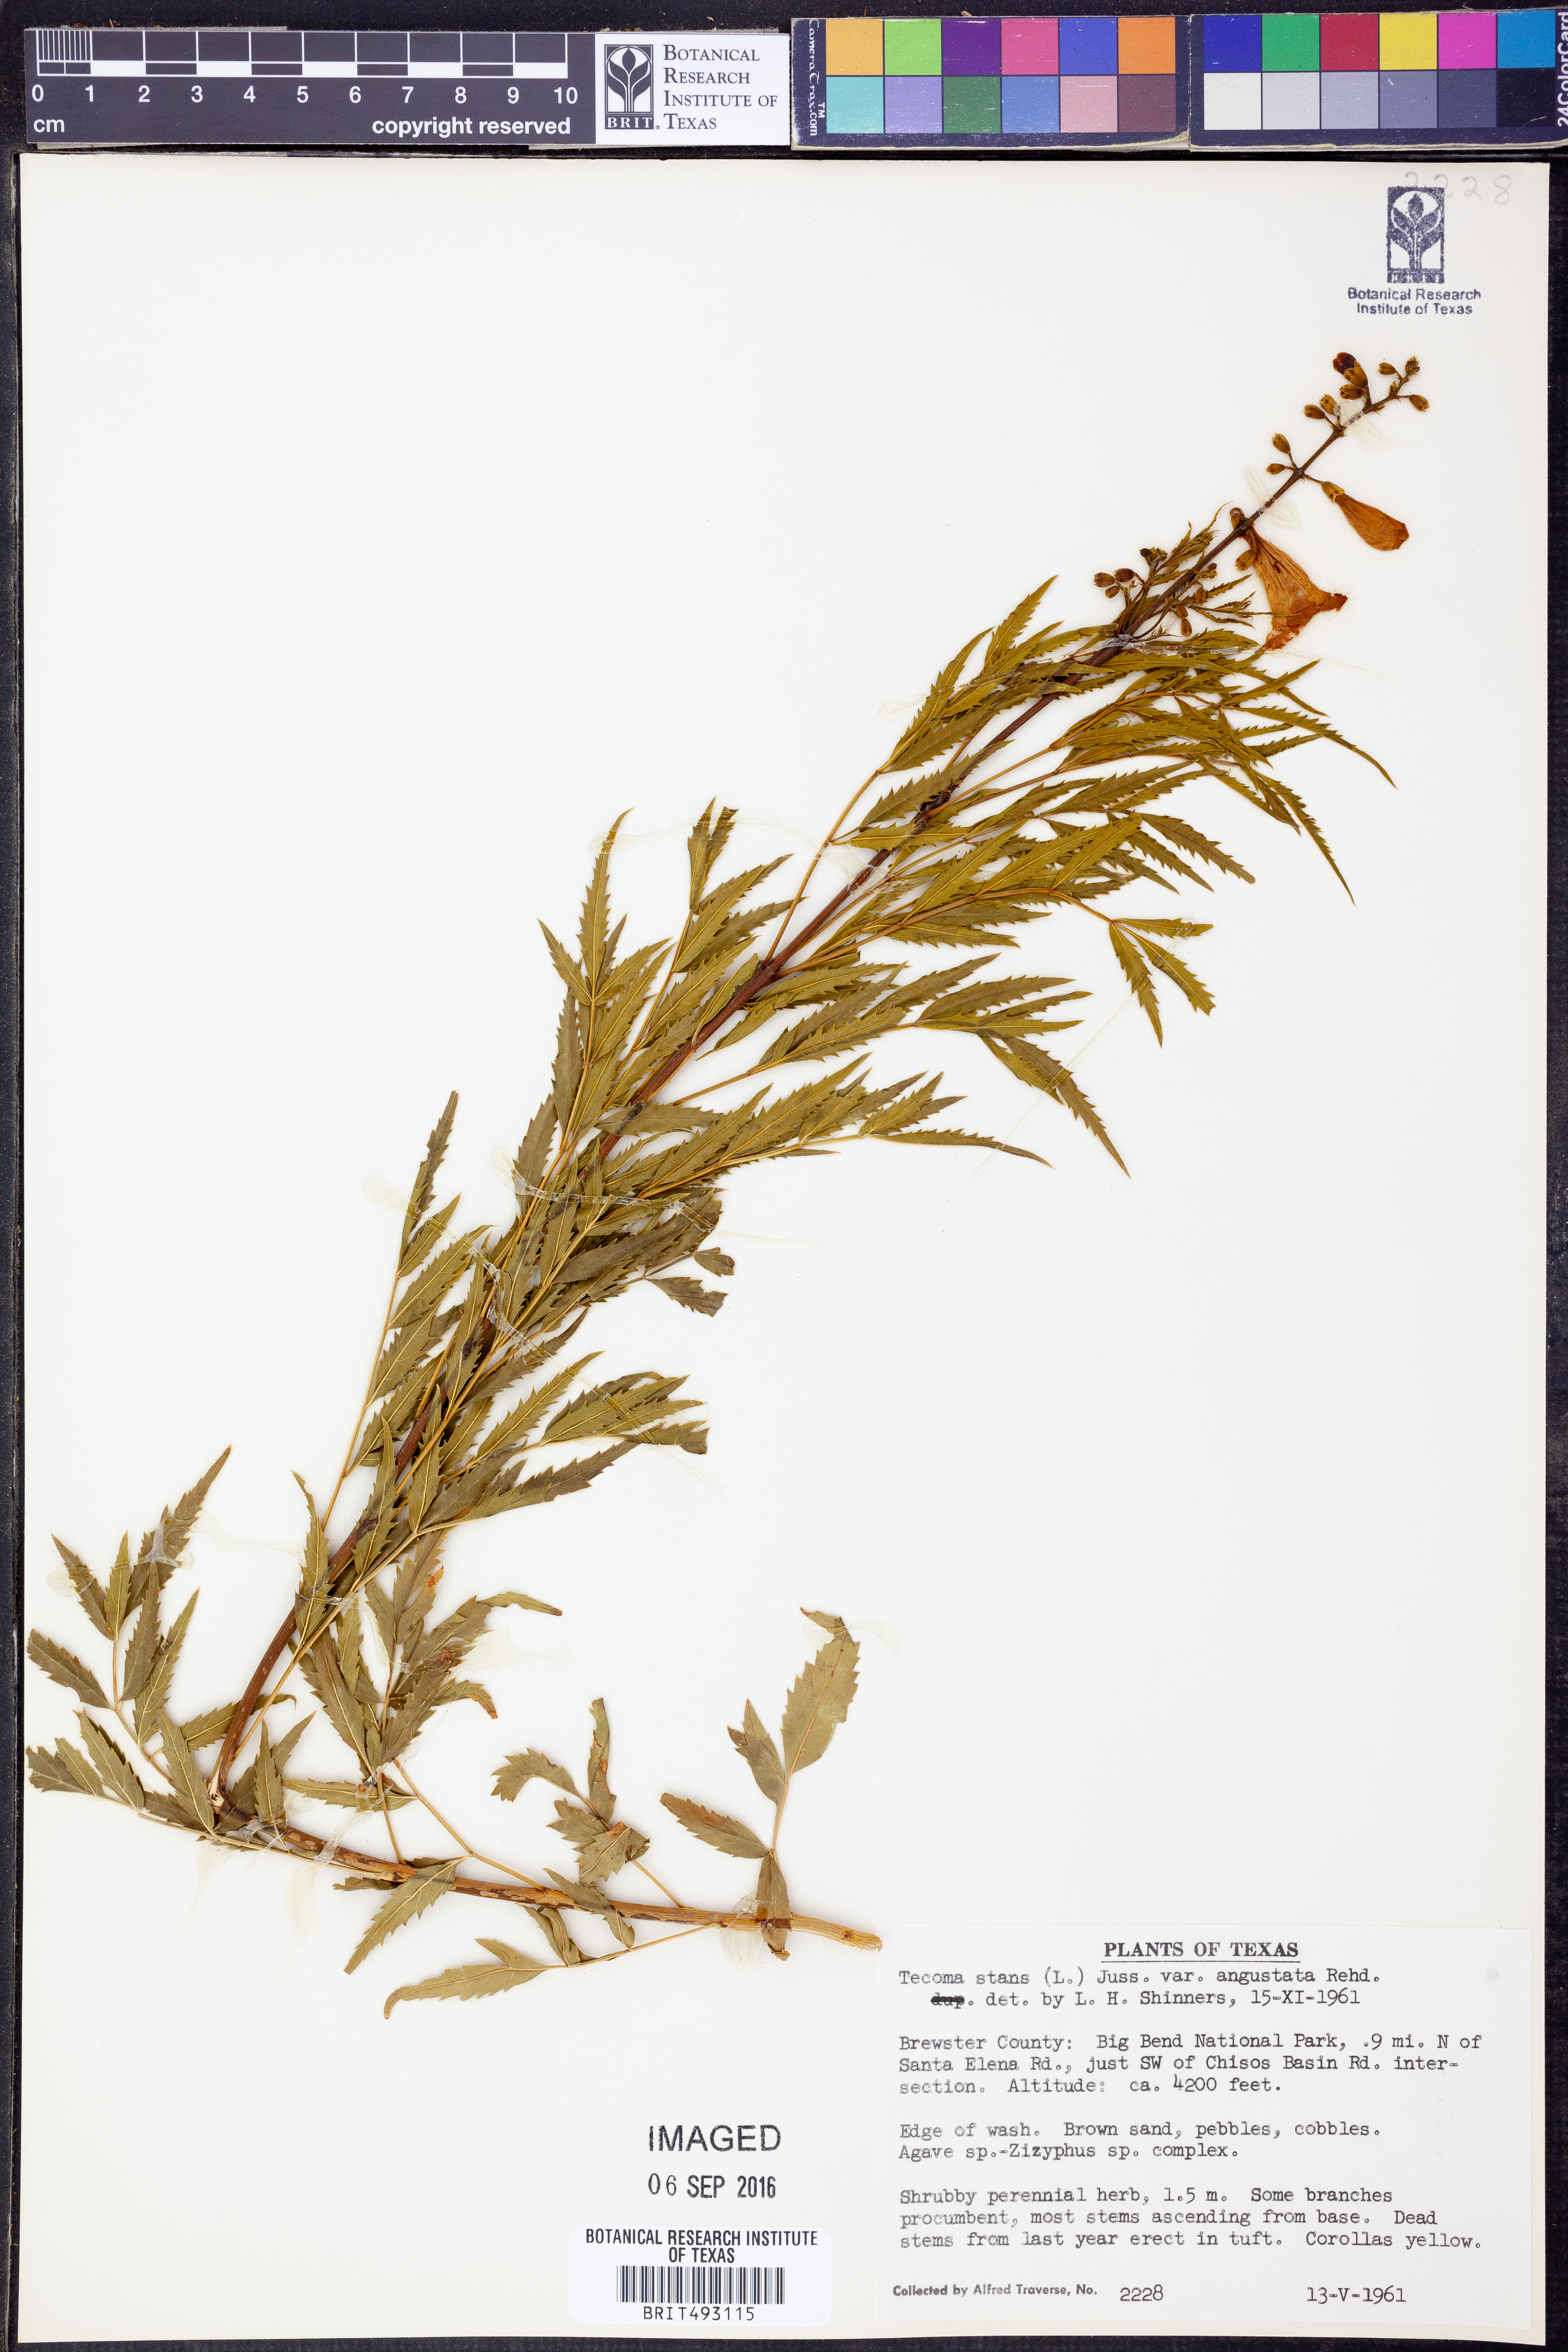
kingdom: Plantae
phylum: Tracheophyta
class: Magnoliopsida
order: Lamiales
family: Bignoniaceae
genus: Tecoma
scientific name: Tecoma stans
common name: Yellow trumpetbush
